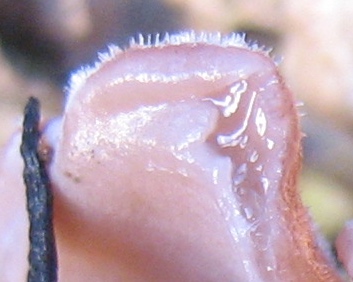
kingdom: Fungi
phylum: Basidiomycota
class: Agaricomycetes
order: Auriculariales
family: Auriculariaceae
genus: Auricularia
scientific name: Auricularia auricula-judae
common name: almindelig judasøre
